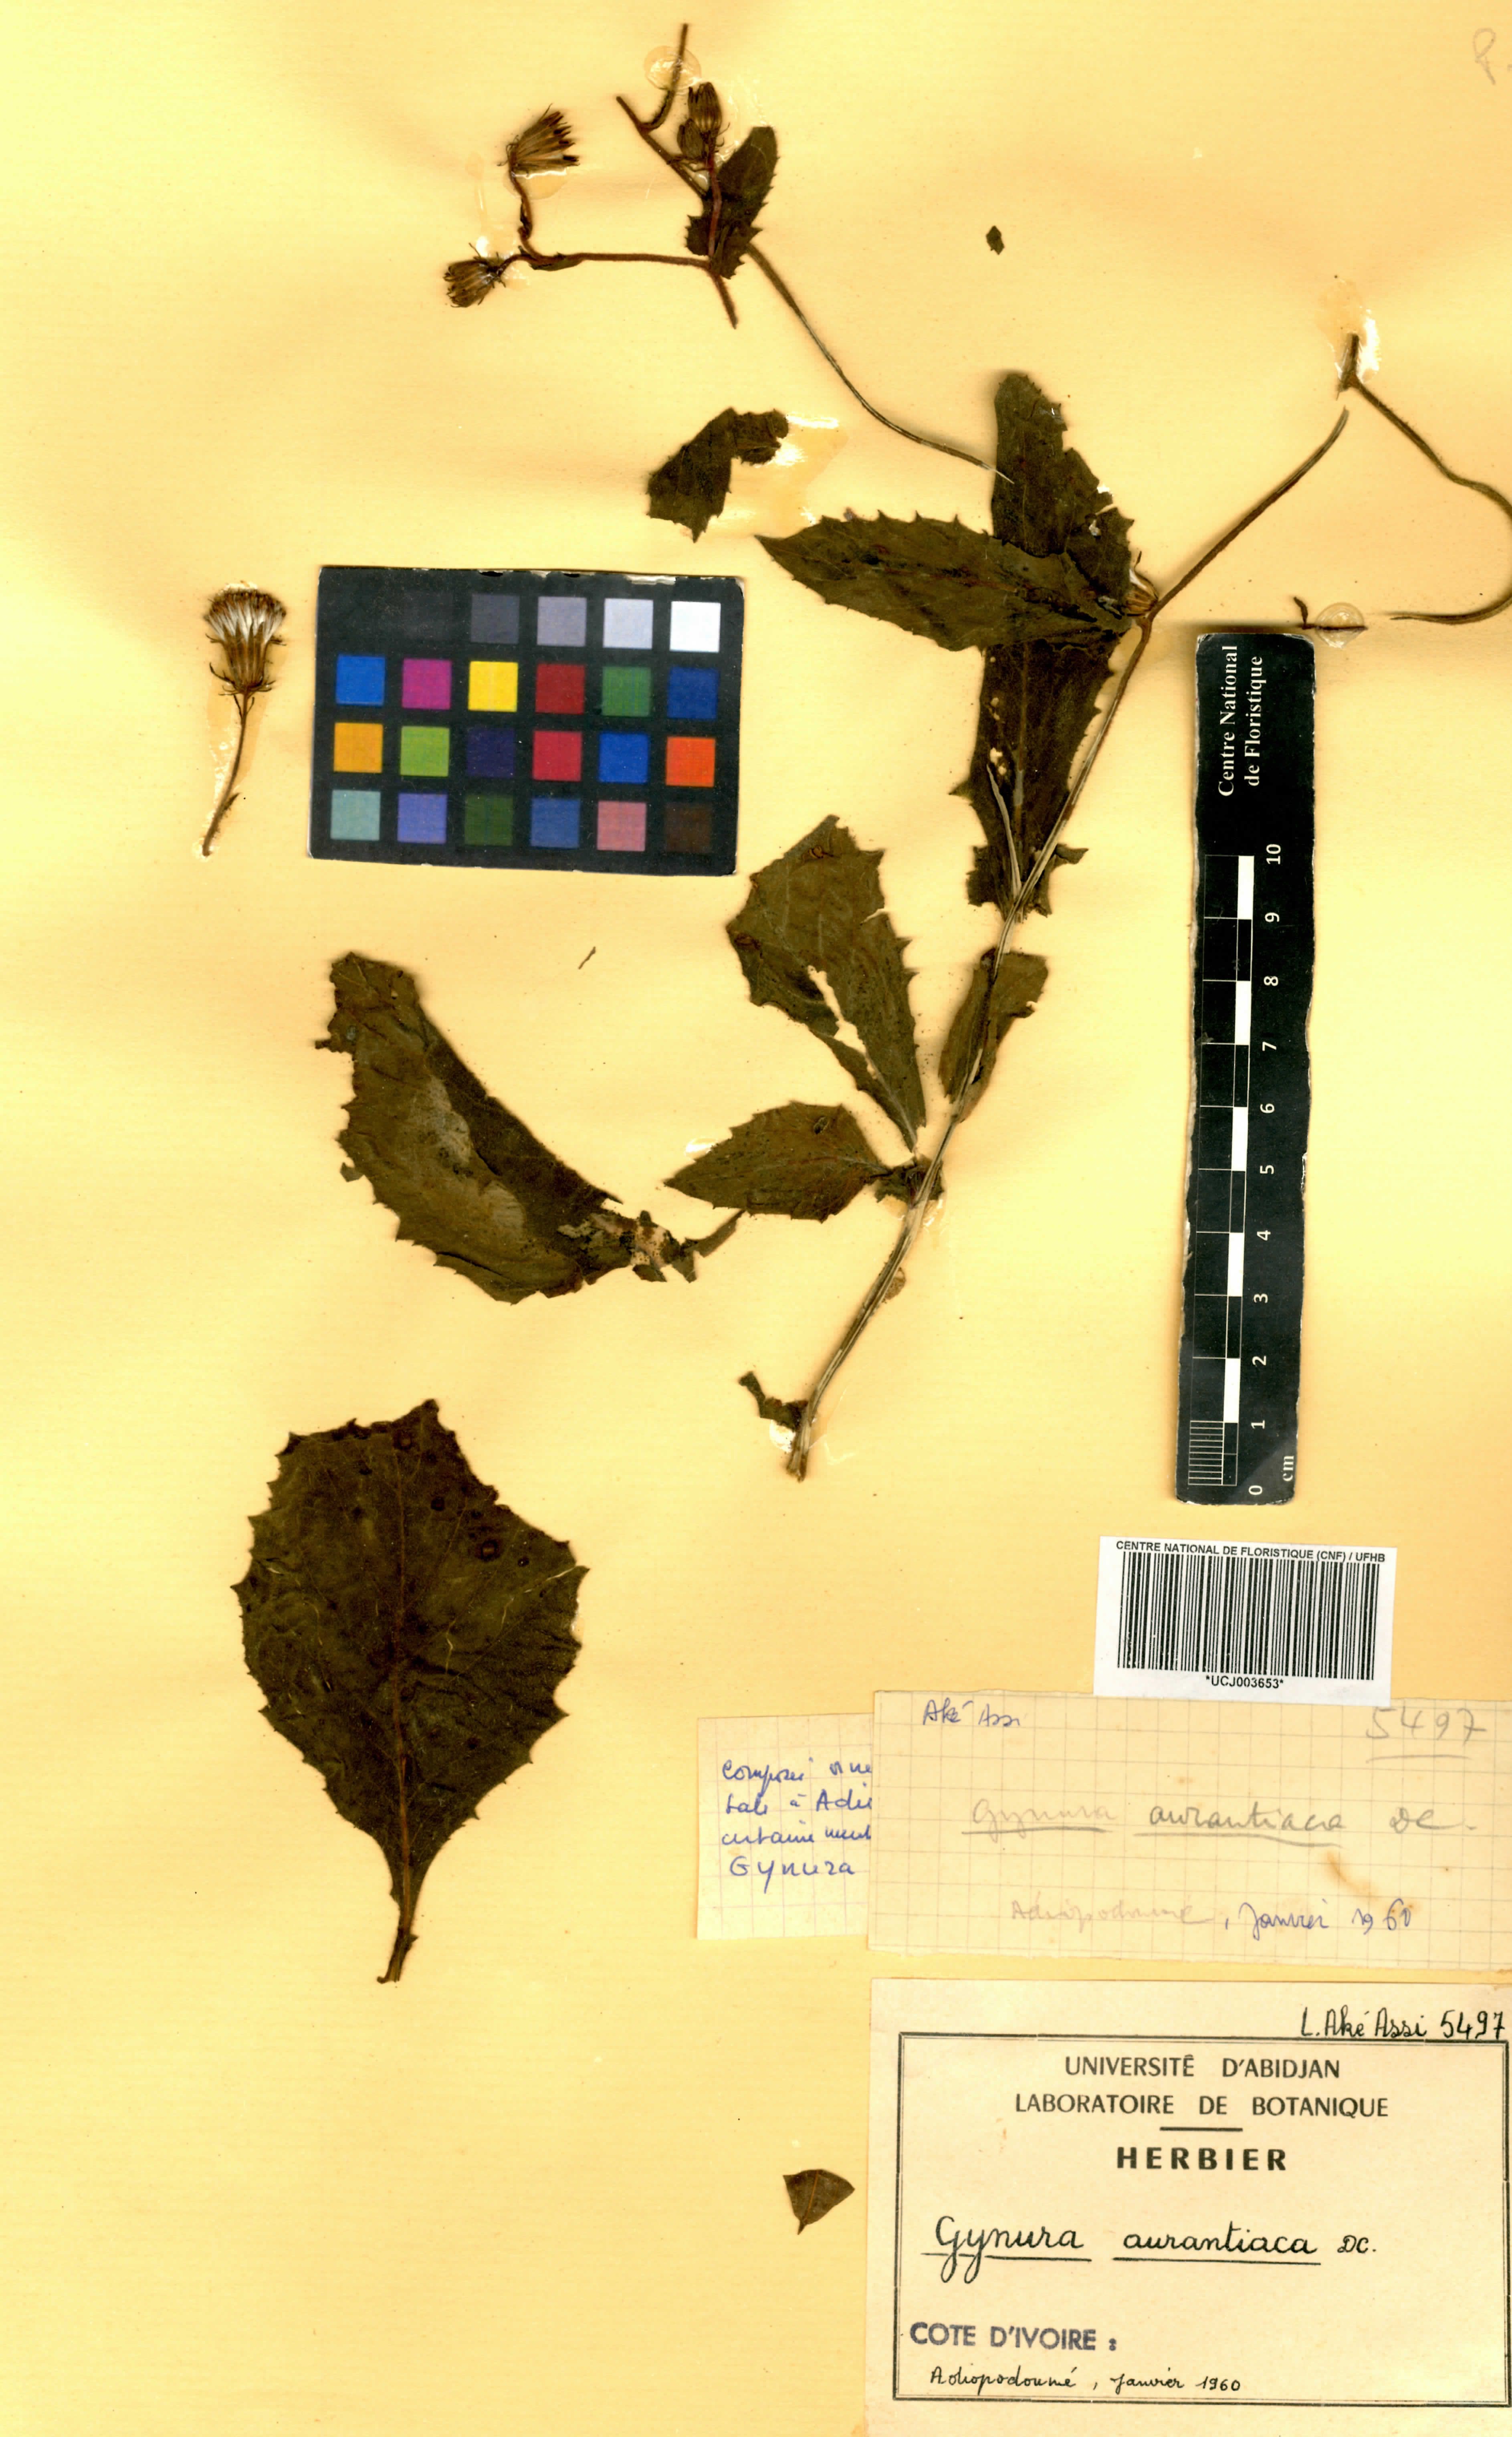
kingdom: Plantae
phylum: Tracheophyta
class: Magnoliopsida
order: Asterales
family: Asteraceae
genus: Gynura
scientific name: Gynura aurantiaca
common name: Velvetplant
